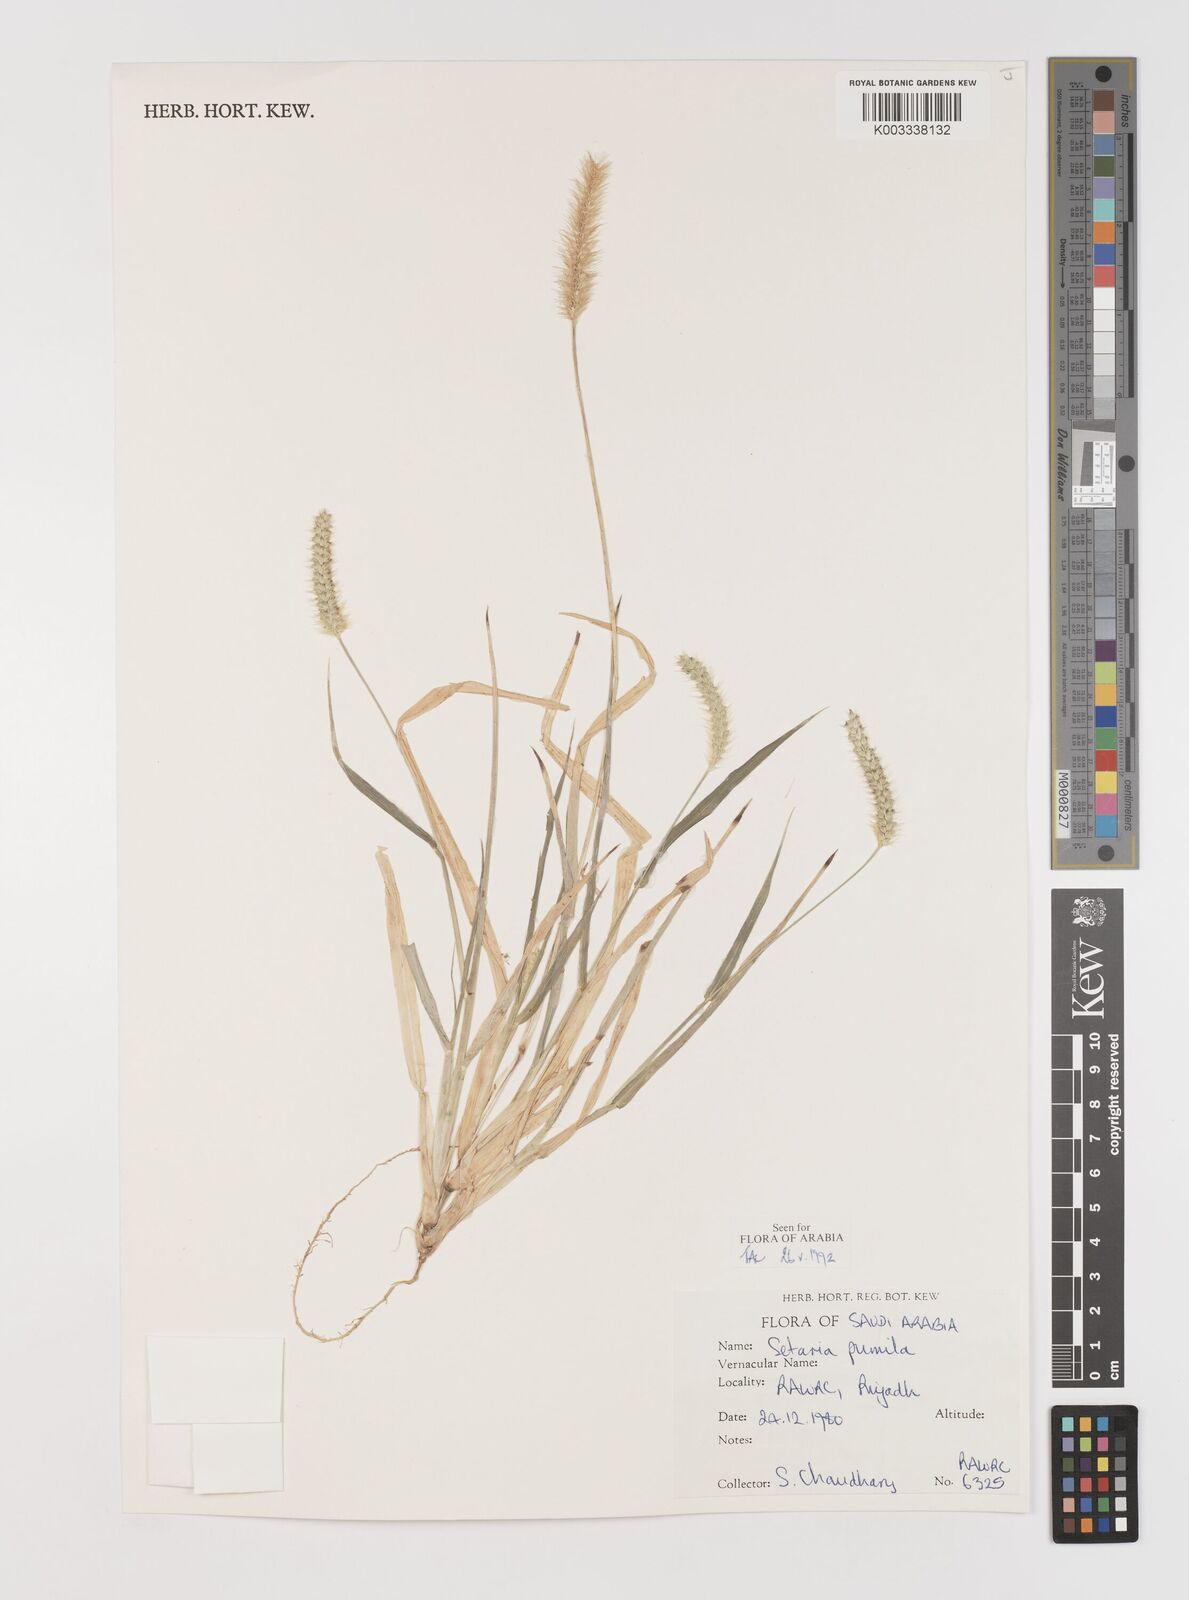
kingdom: Plantae
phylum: Tracheophyta
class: Liliopsida
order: Poales
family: Poaceae
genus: Setaria
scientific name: Setaria pumila
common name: Yellow bristle-grass
